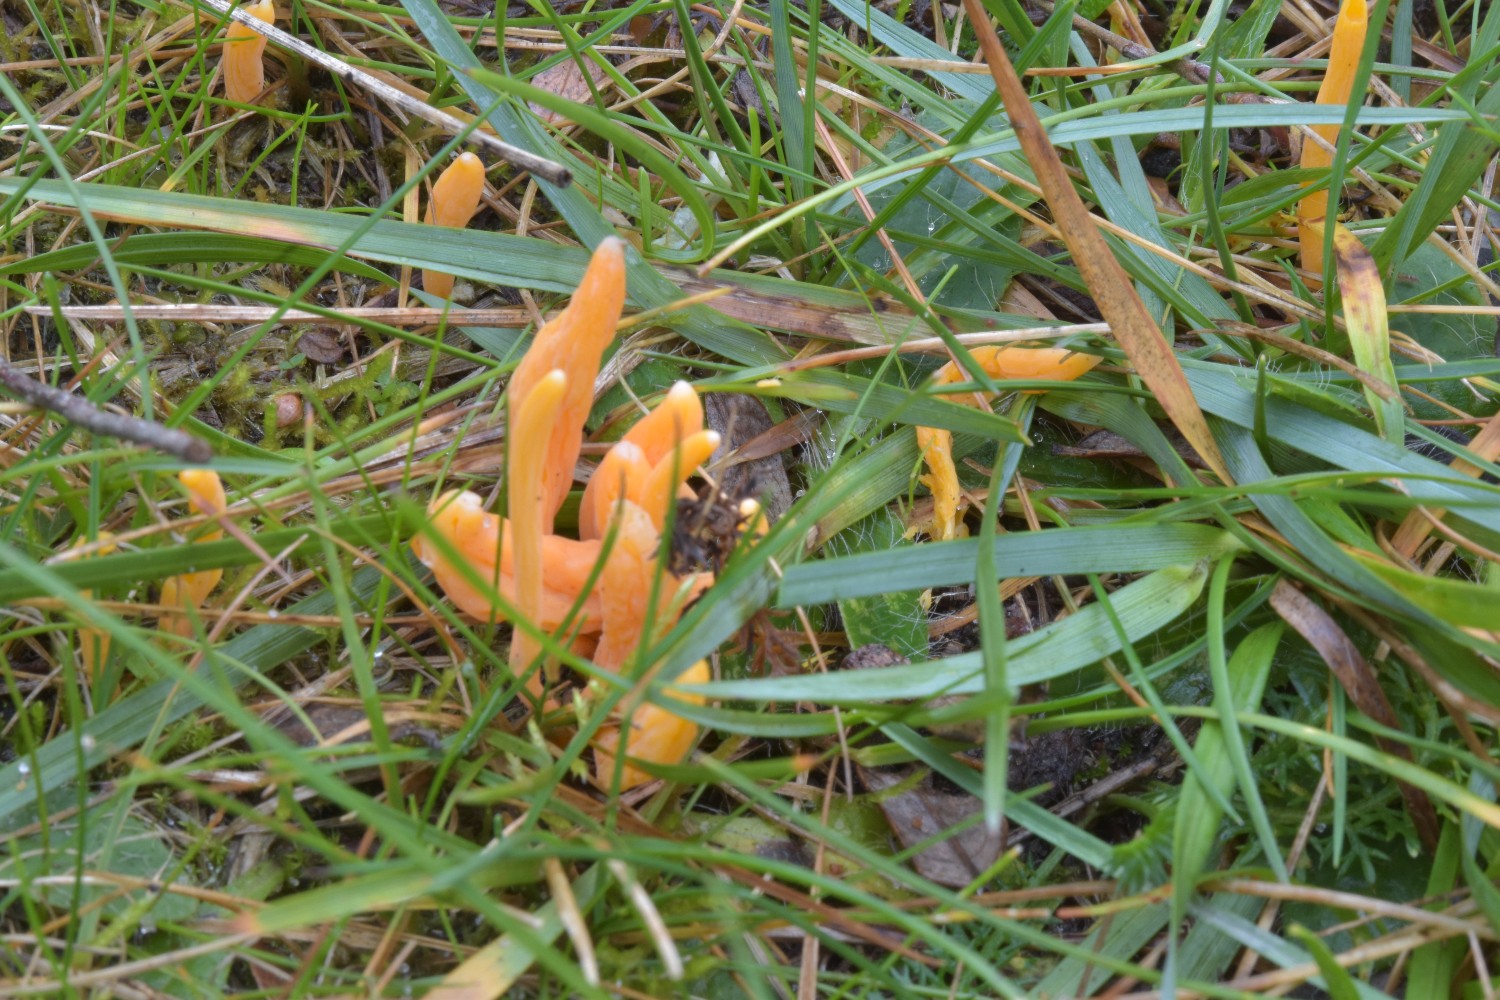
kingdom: Fungi
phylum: Basidiomycota
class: Agaricomycetes
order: Agaricales
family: Clavariaceae
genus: Clavulinopsis
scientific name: Clavulinopsis luteoalba
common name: abrikos-køllesvamp
